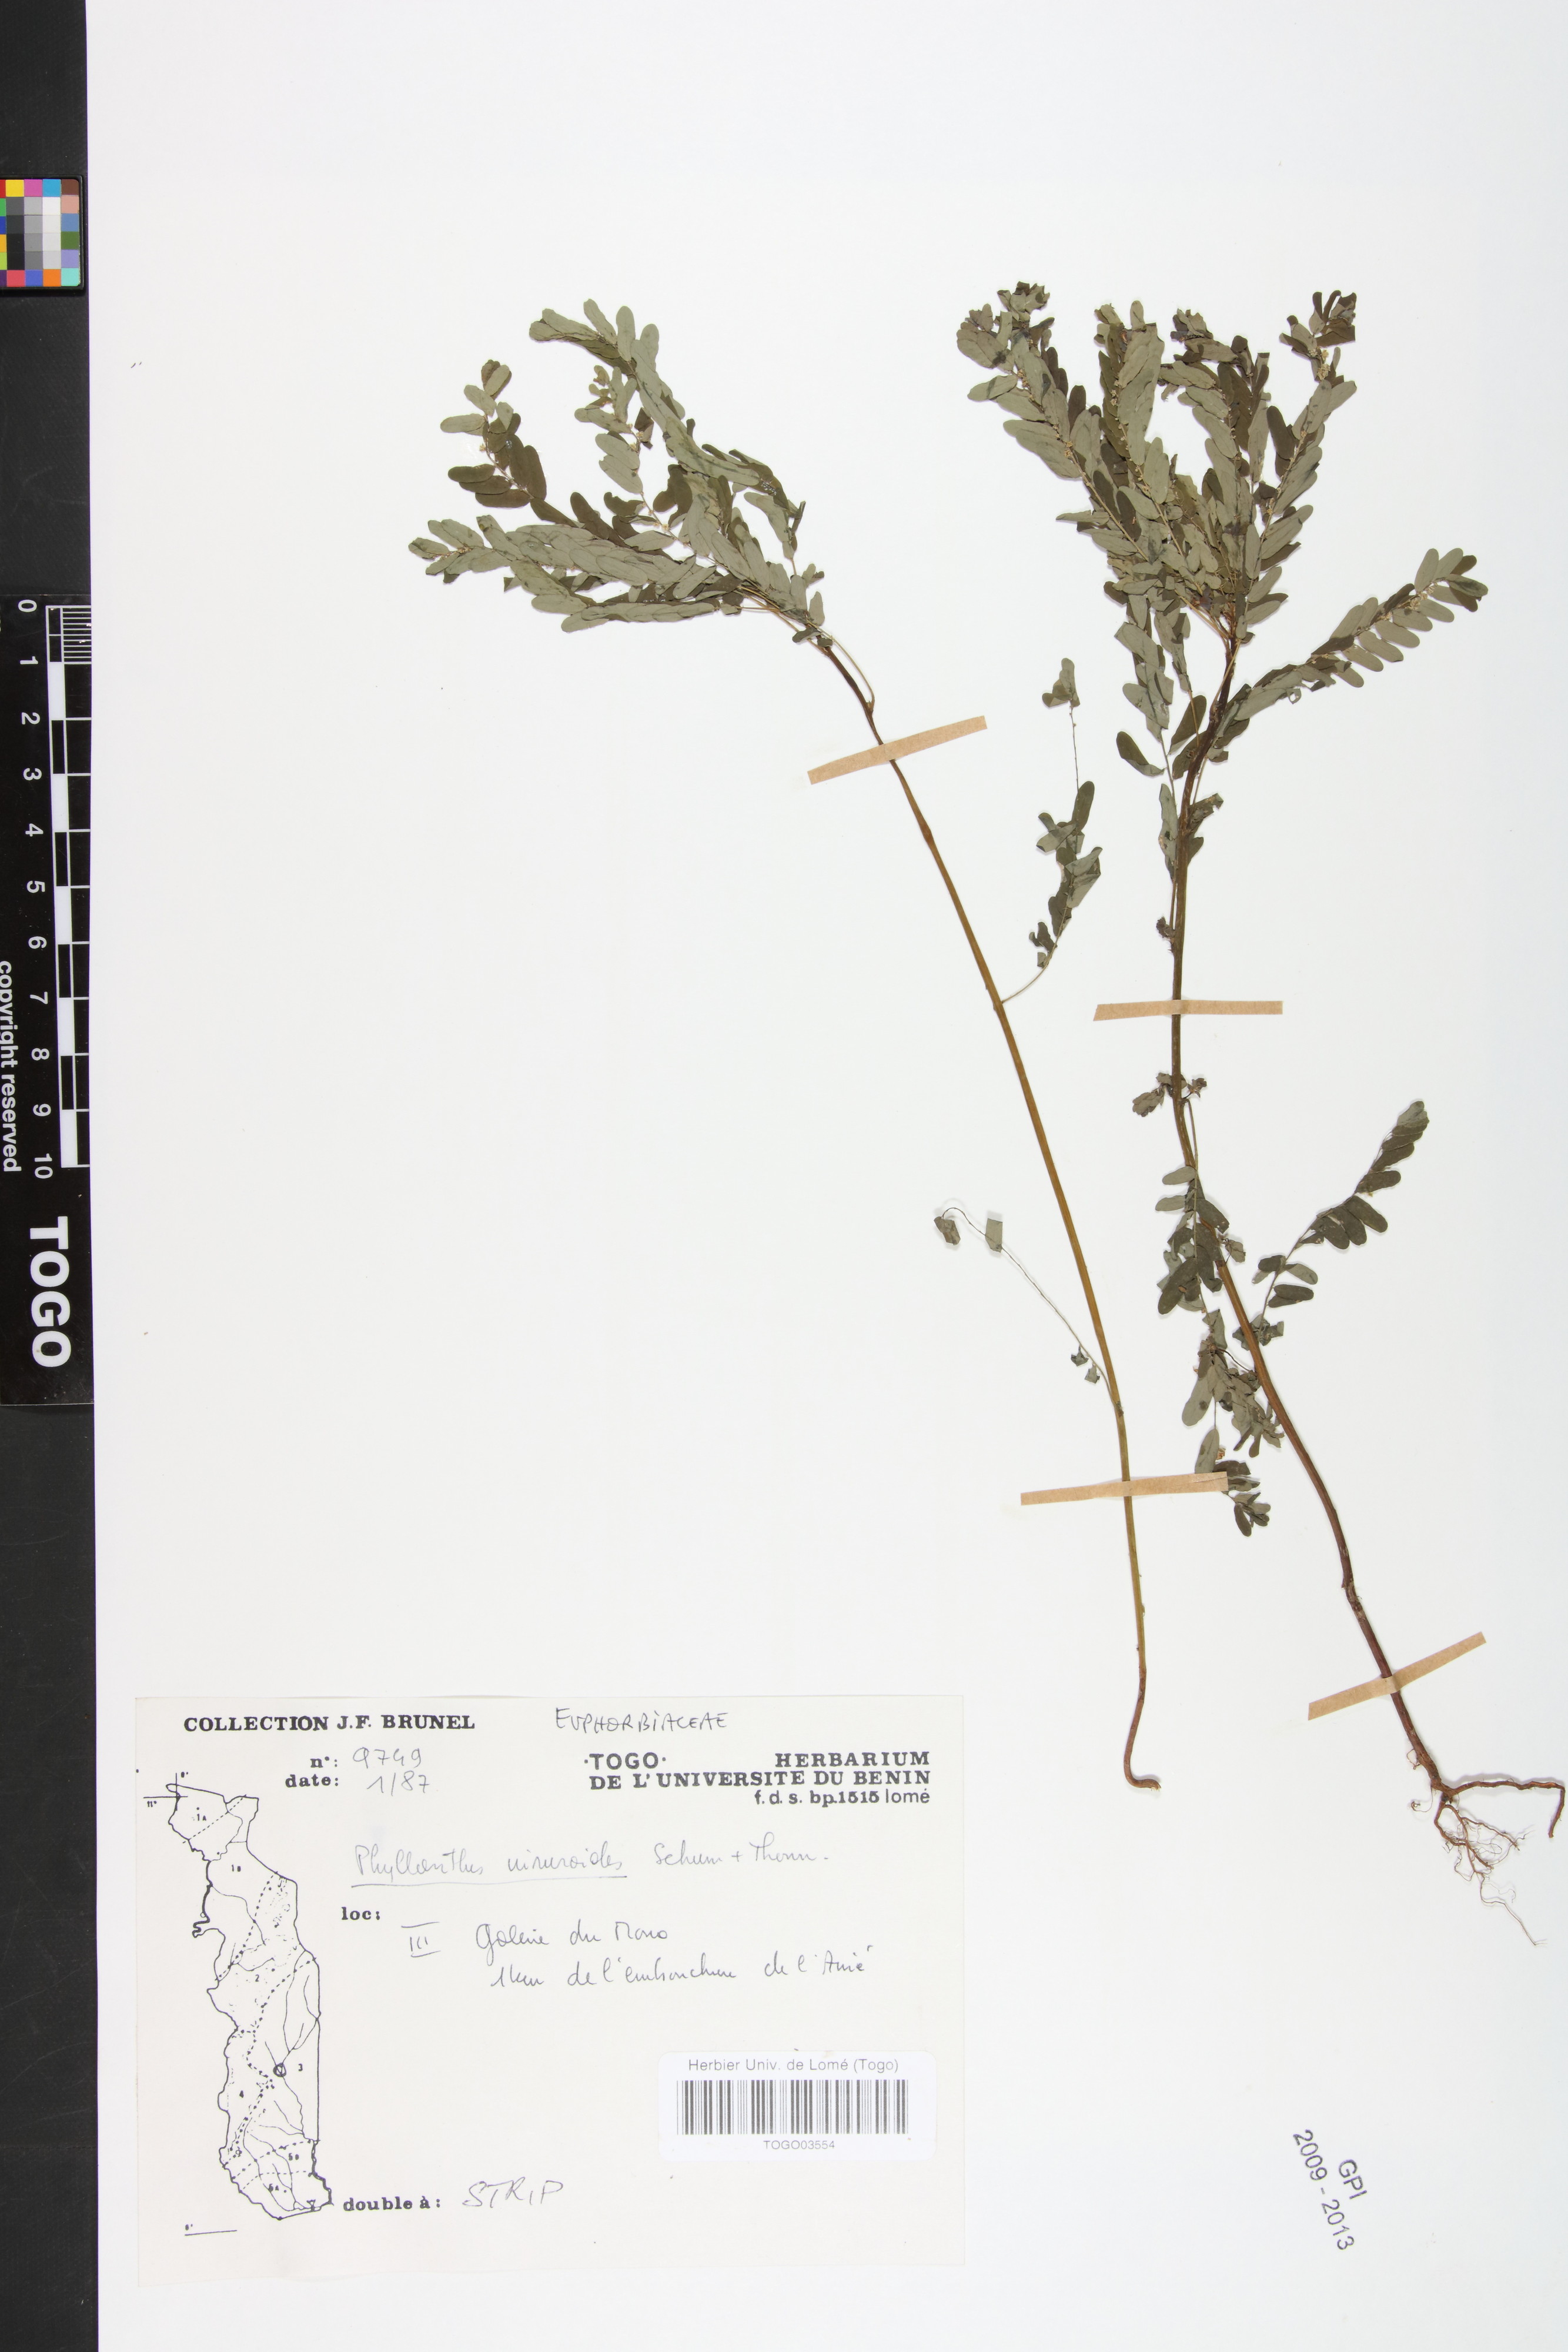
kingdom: Plantae
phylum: Tracheophyta
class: Magnoliopsida
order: Malpighiales
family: Phyllanthaceae
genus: Phyllanthus
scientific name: Phyllanthus niruroides
